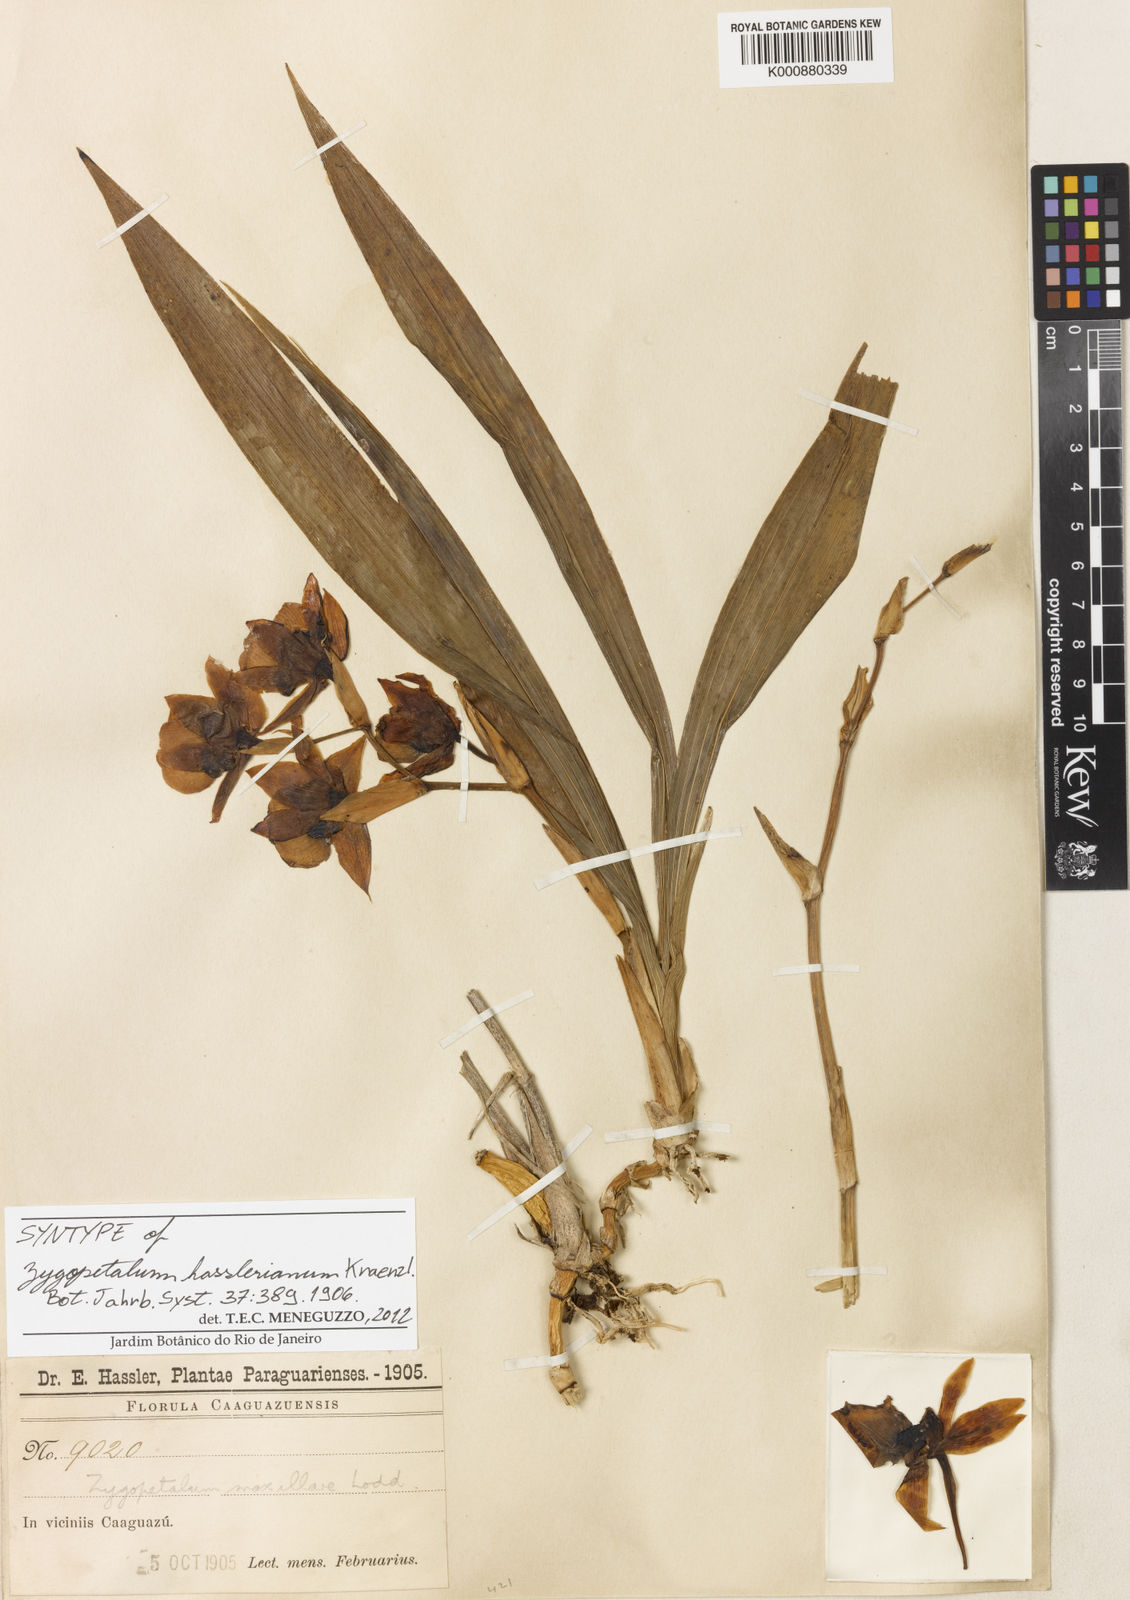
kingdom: Plantae
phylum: Tracheophyta
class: Liliopsida
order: Asparagales
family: Orchidaceae
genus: Zygopetalum
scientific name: Zygopetalum maxillare
